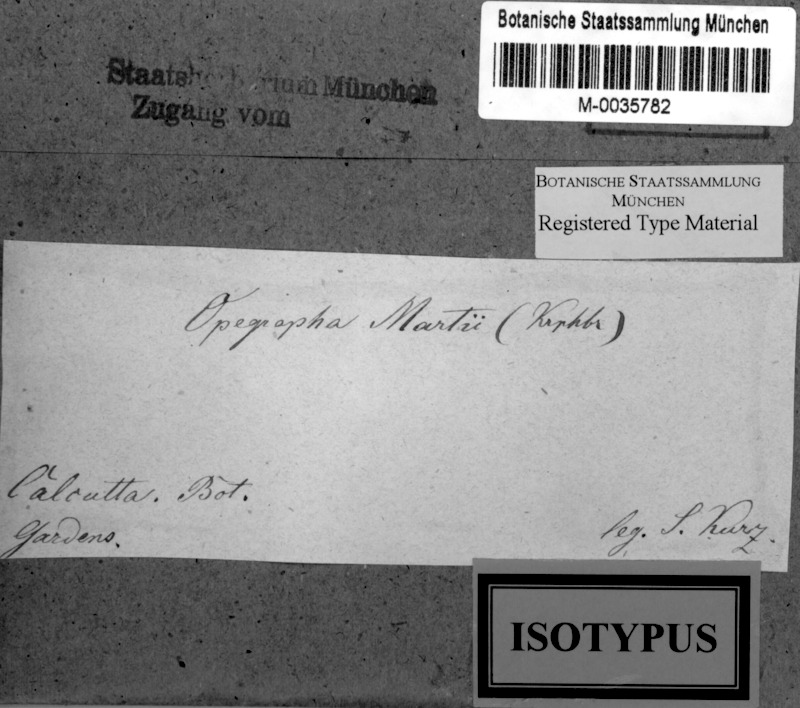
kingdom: Fungi
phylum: Ascomycota
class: Arthoniomycetes
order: Arthoniales
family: Lecanographaceae
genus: Lecanographa
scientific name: Lecanographa martii
